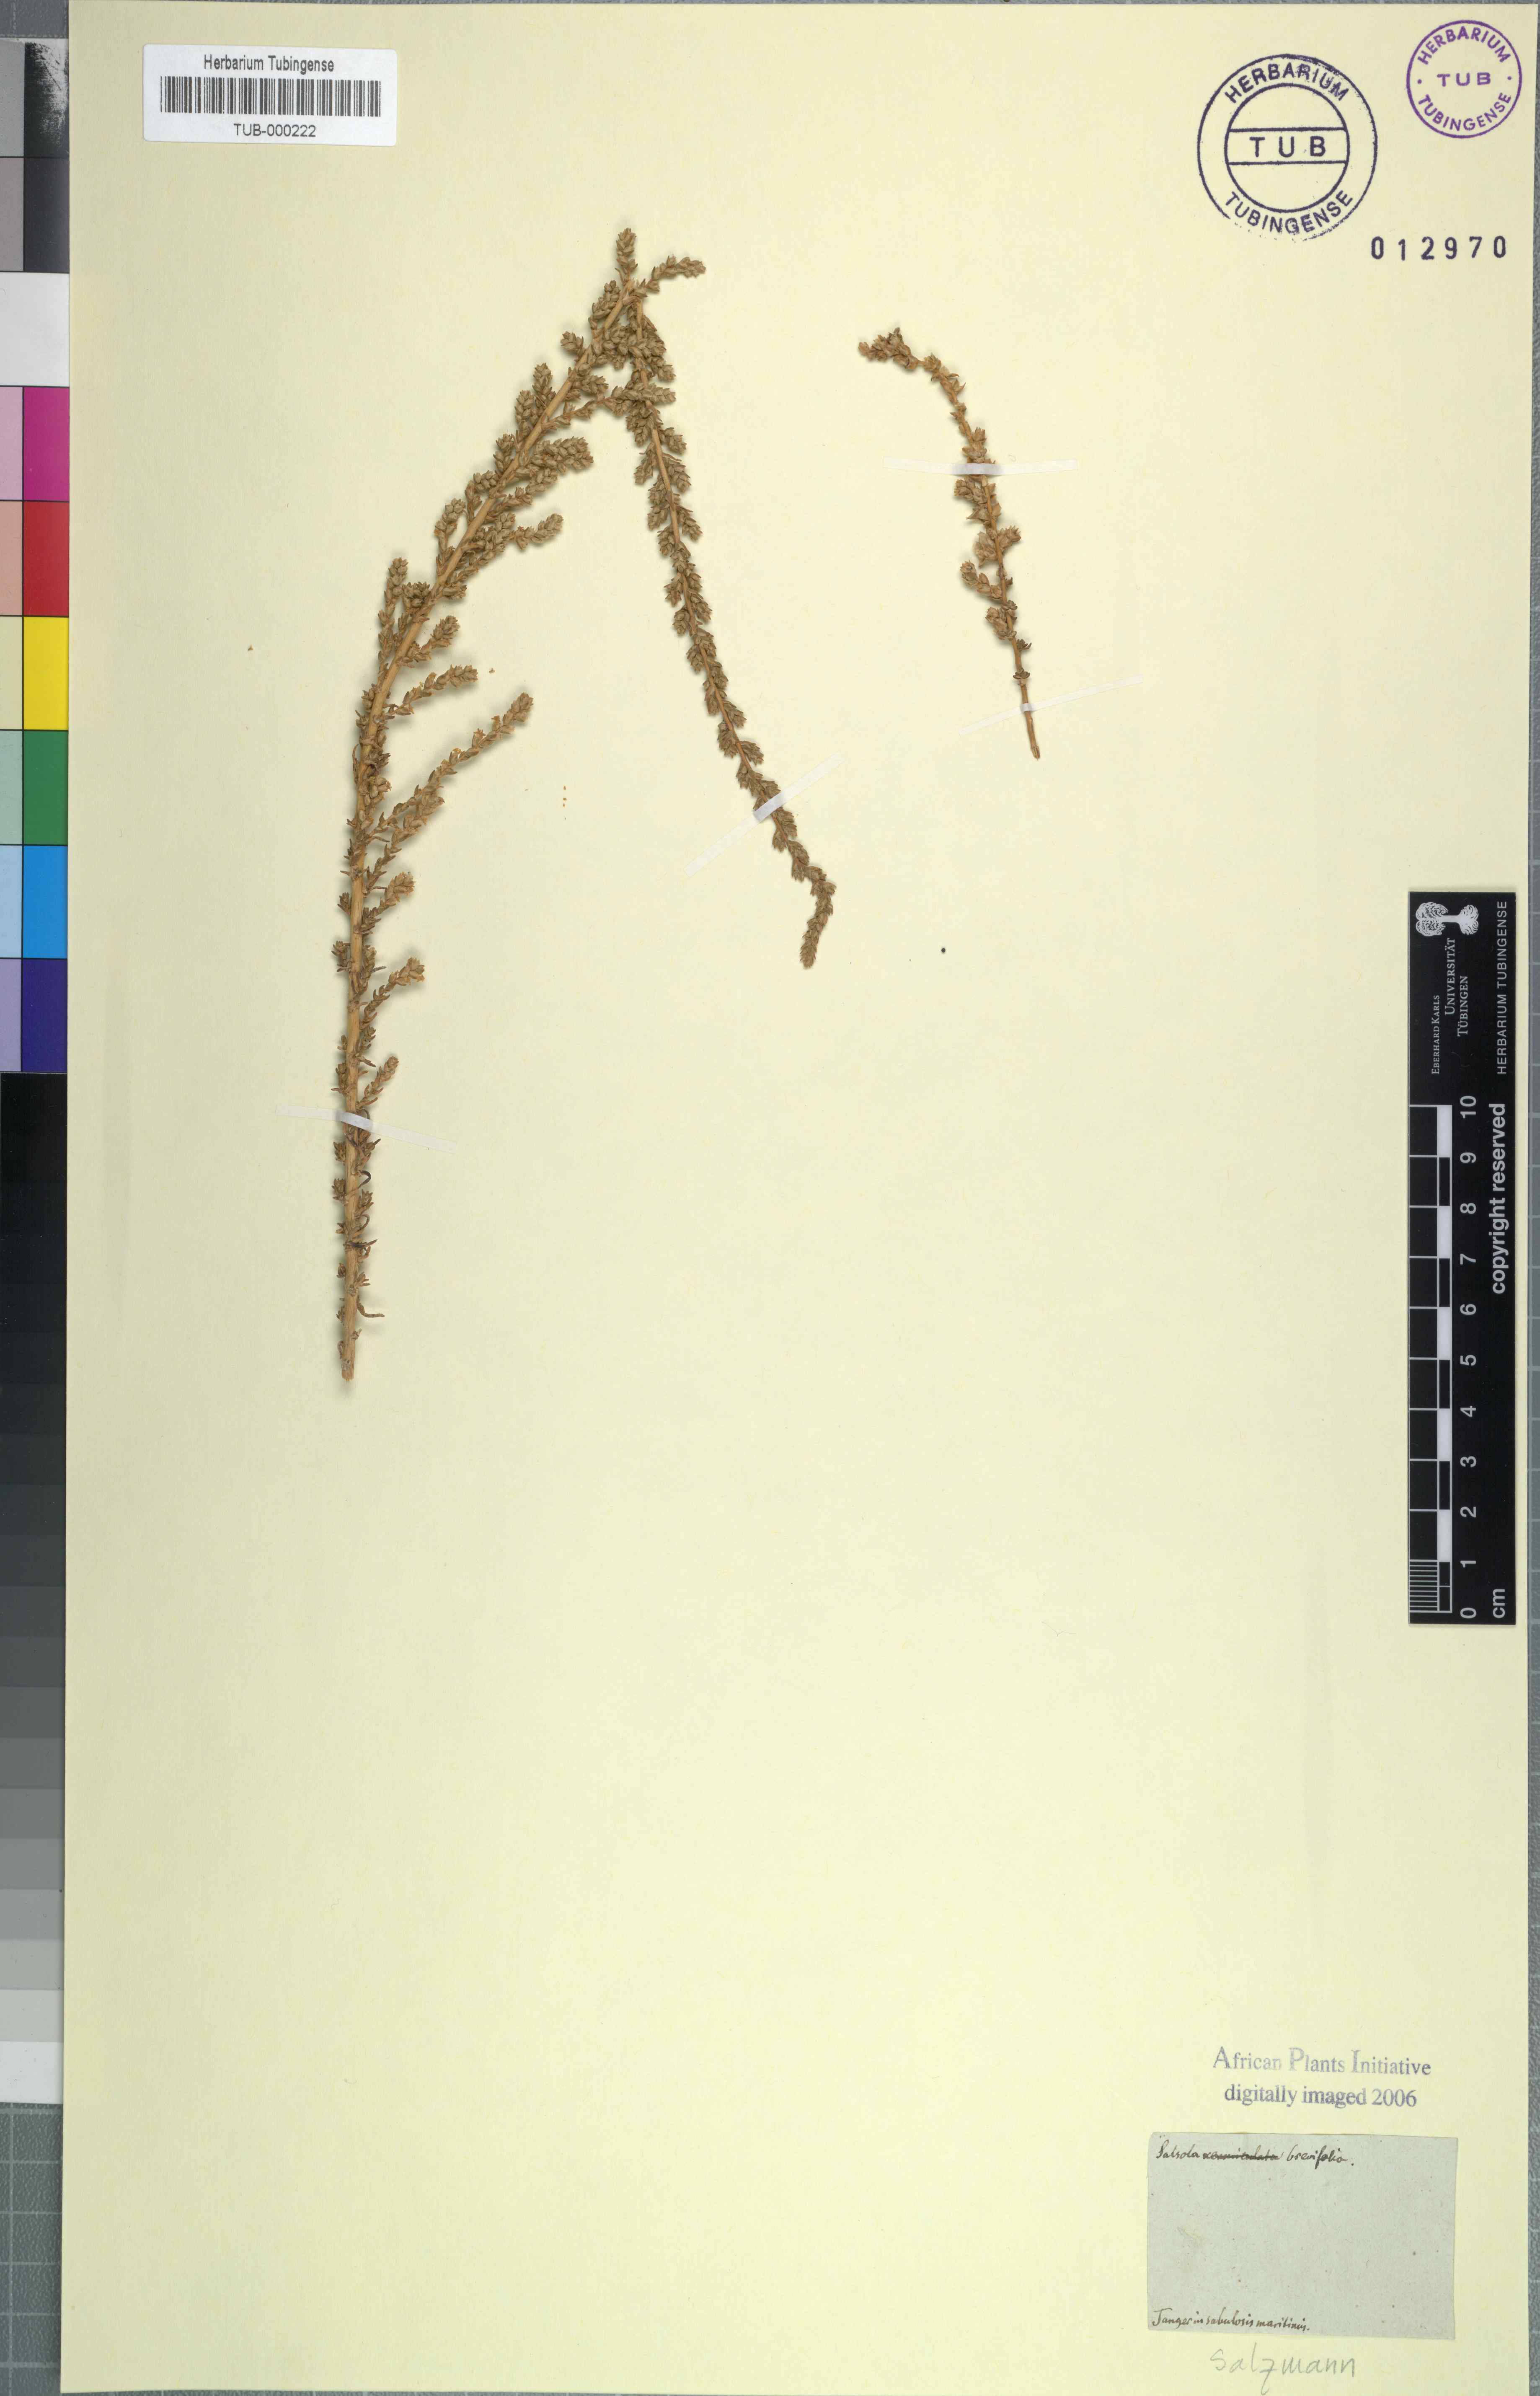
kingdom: Plantae
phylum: Tracheophyta
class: Magnoliopsida
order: Caryophyllales
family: Amaranthaceae
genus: Nitrosalsola
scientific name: Nitrosalsola brevifolia
